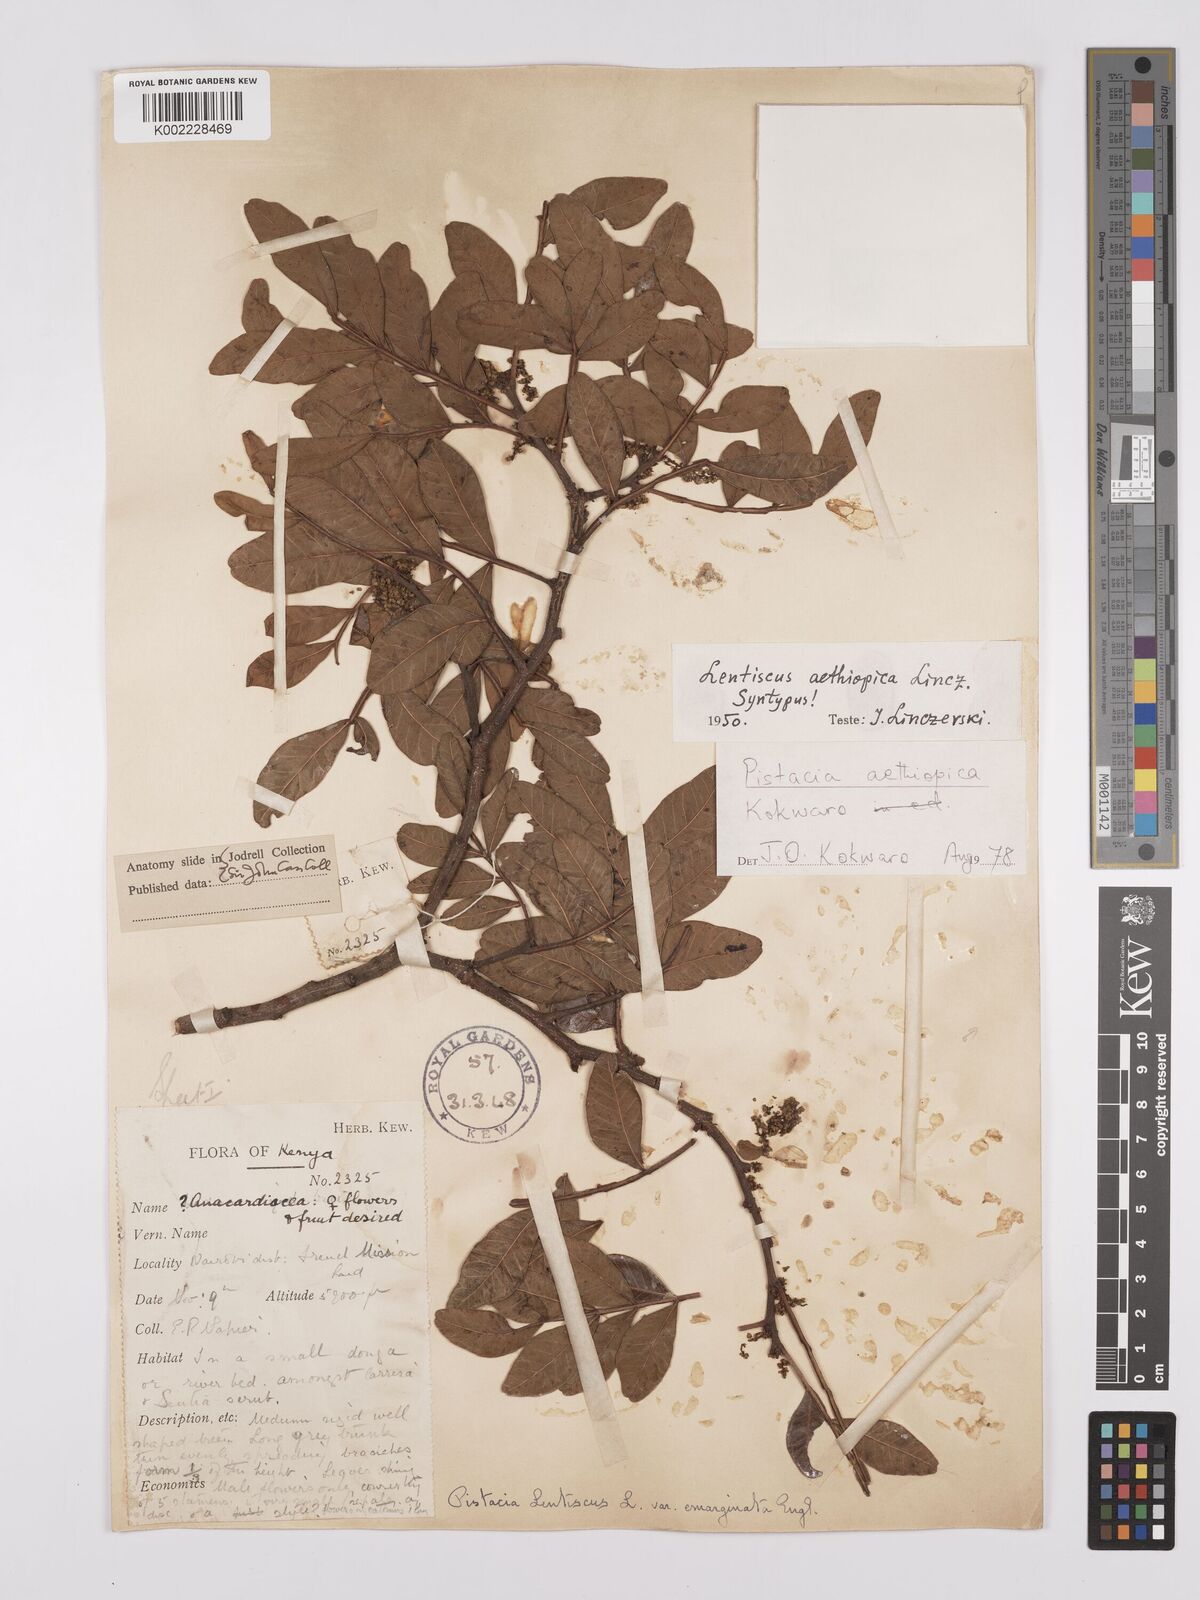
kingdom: Plantae
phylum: Tracheophyta
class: Magnoliopsida
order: Sapindales
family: Anacardiaceae
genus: Pistacia
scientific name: Pistacia lentiscus
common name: Lentisk
